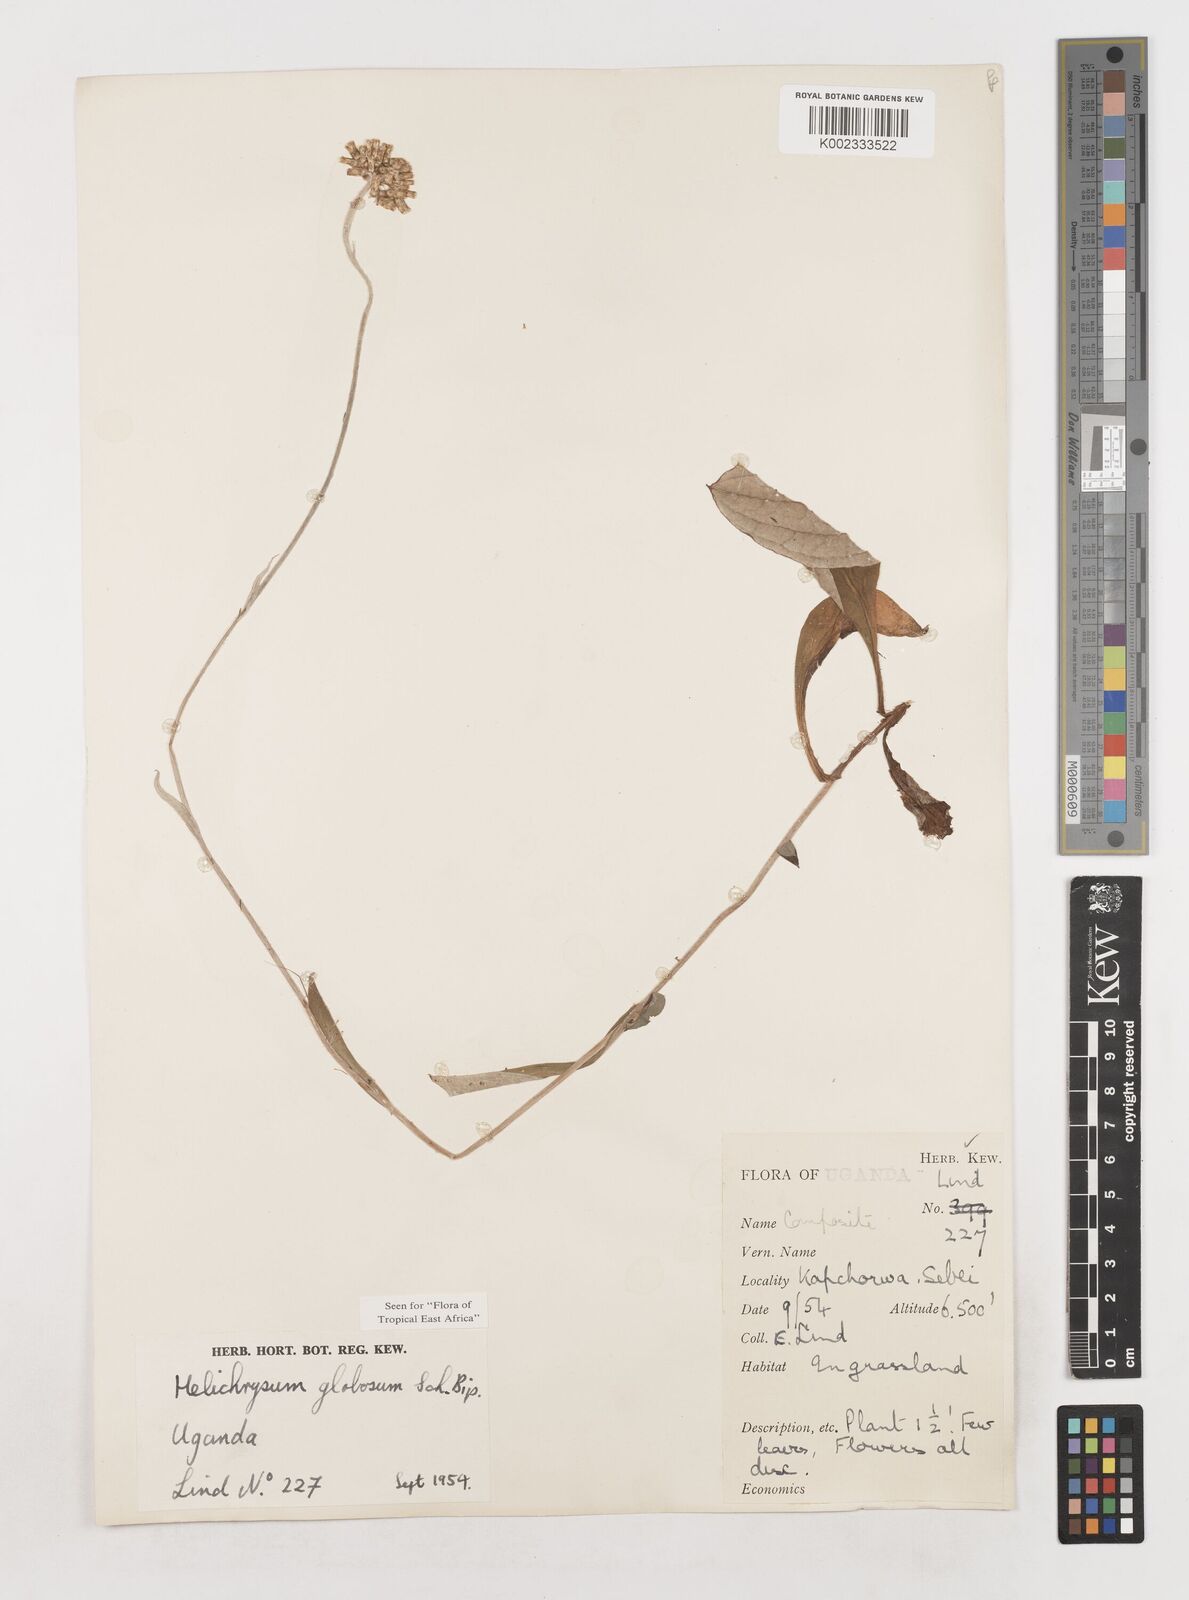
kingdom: Plantae
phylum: Tracheophyta
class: Magnoliopsida
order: Asterales
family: Asteraceae
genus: Helichrysum
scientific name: Helichrysum globosum
